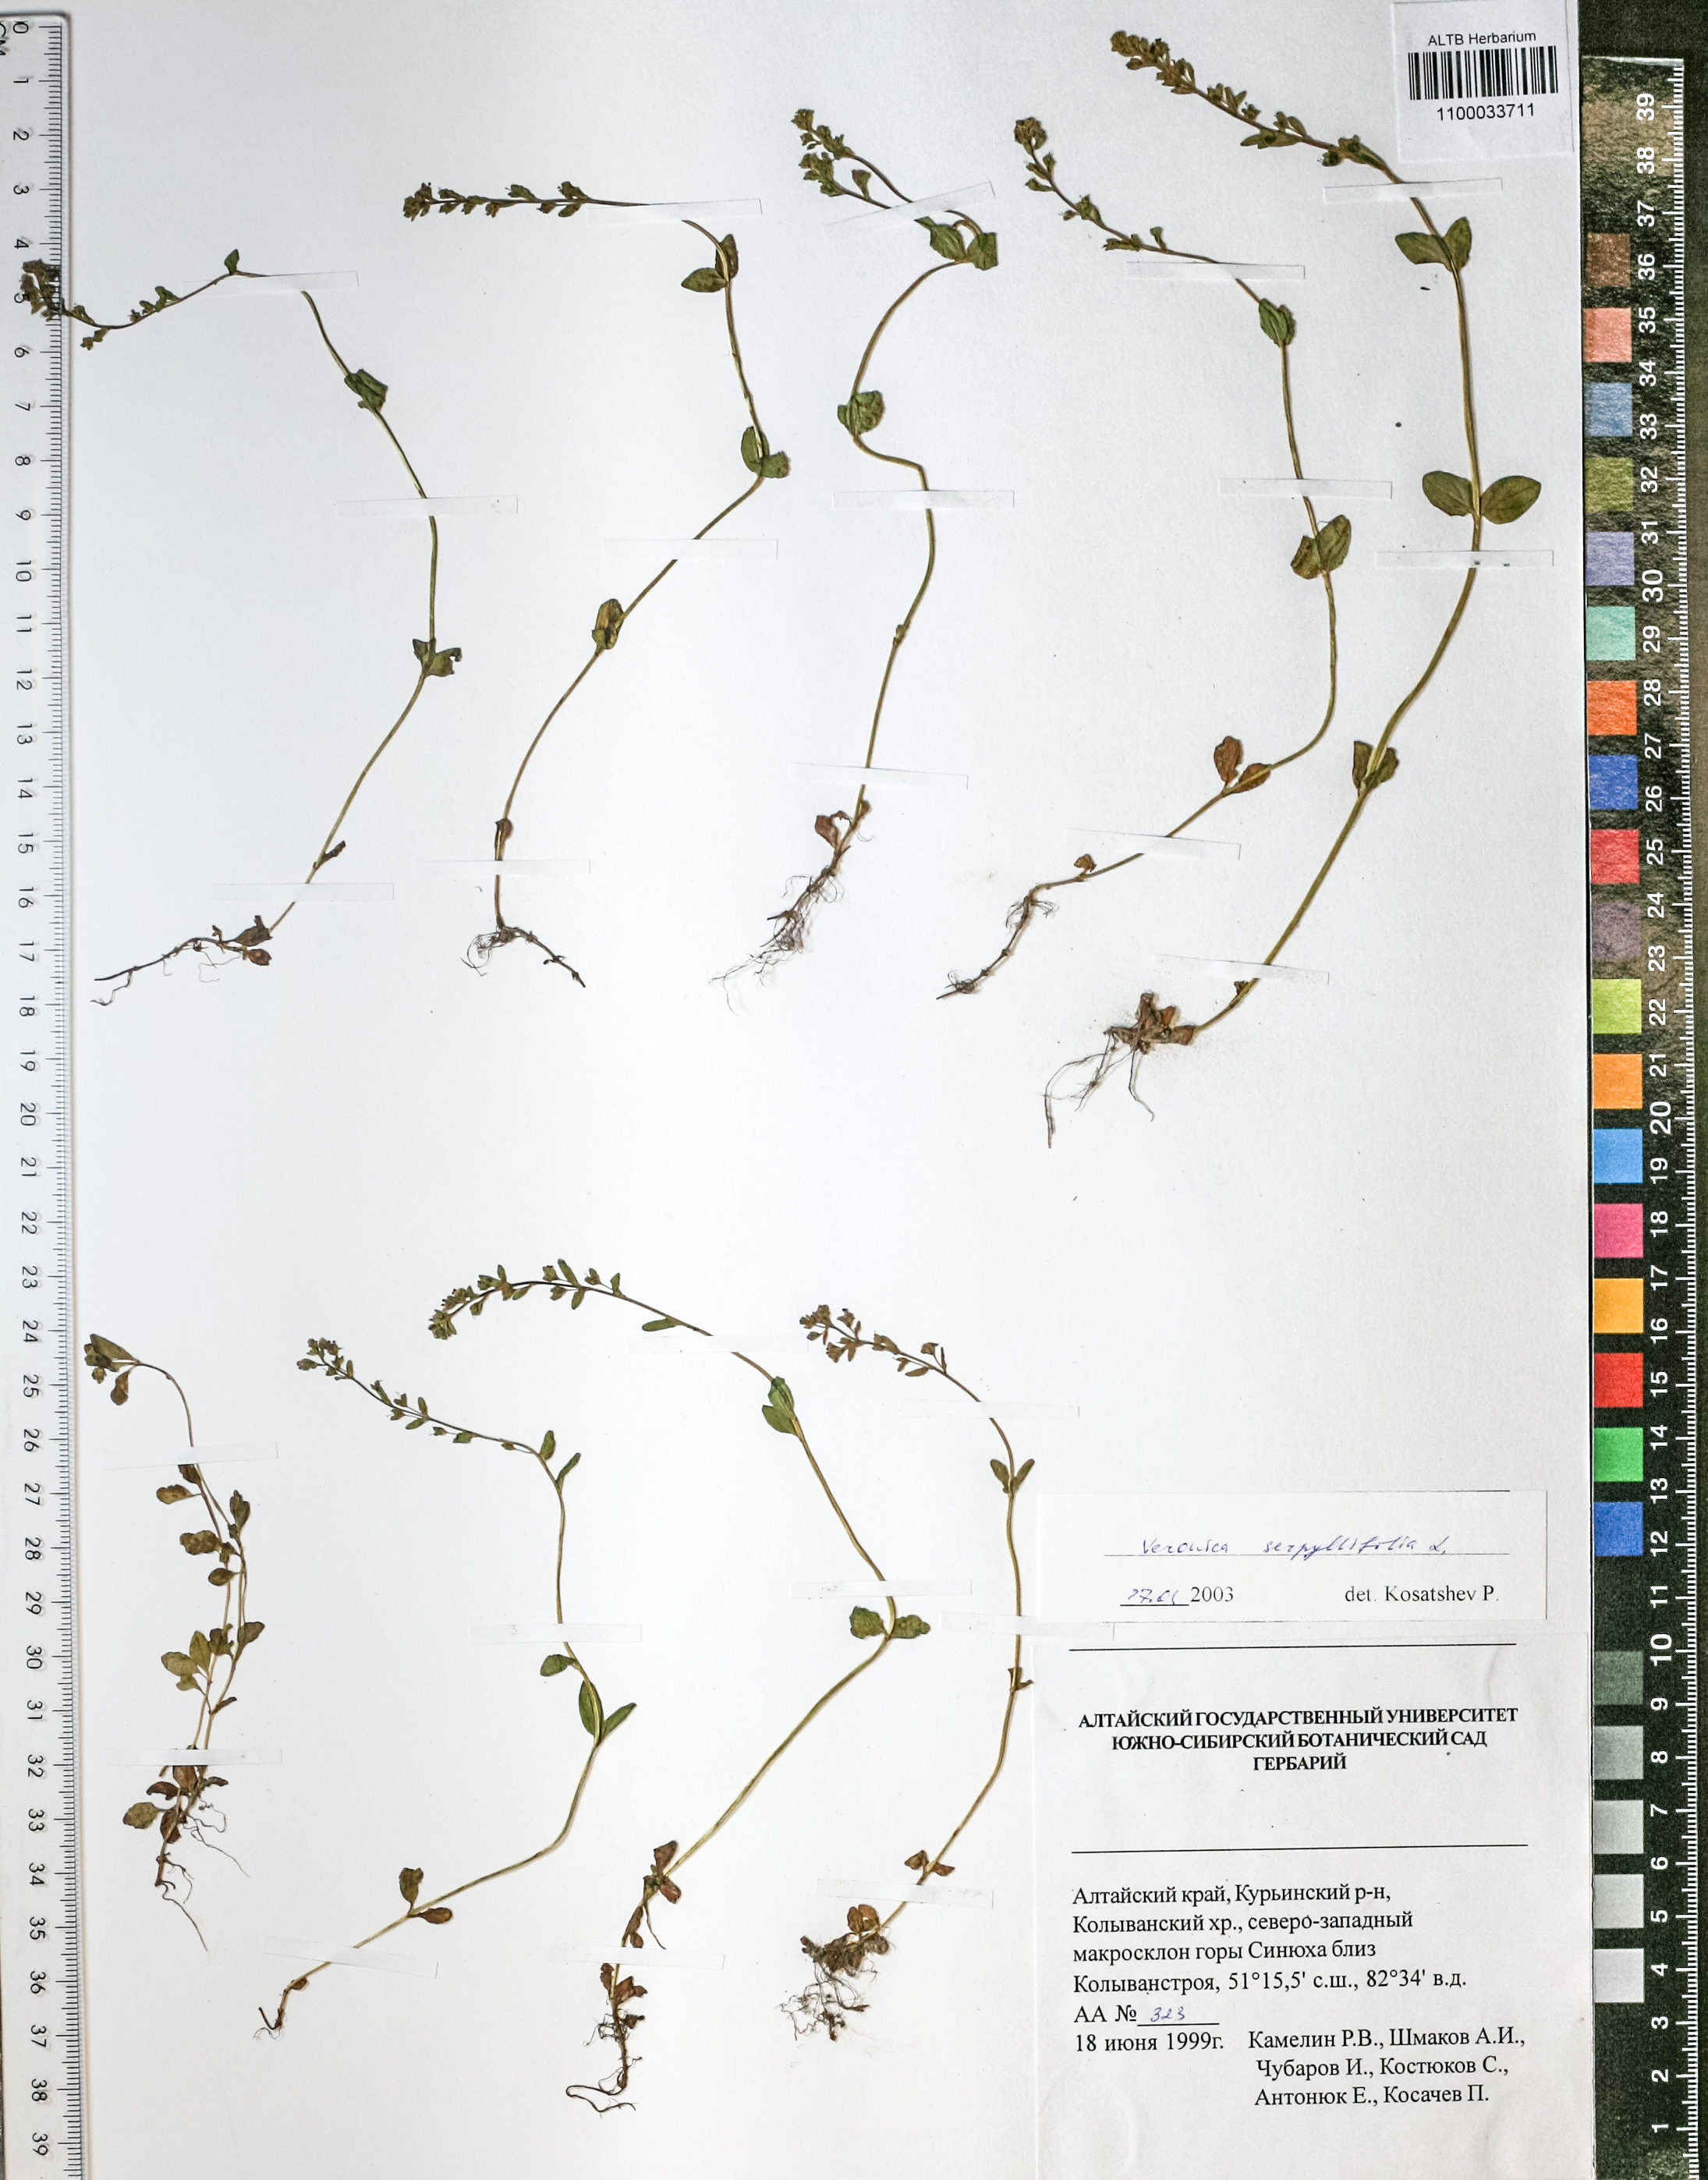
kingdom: Plantae
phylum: Tracheophyta
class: Magnoliopsida
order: Lamiales
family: Plantaginaceae
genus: Veronica
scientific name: Veronica spicata
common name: Spiked speedwell
